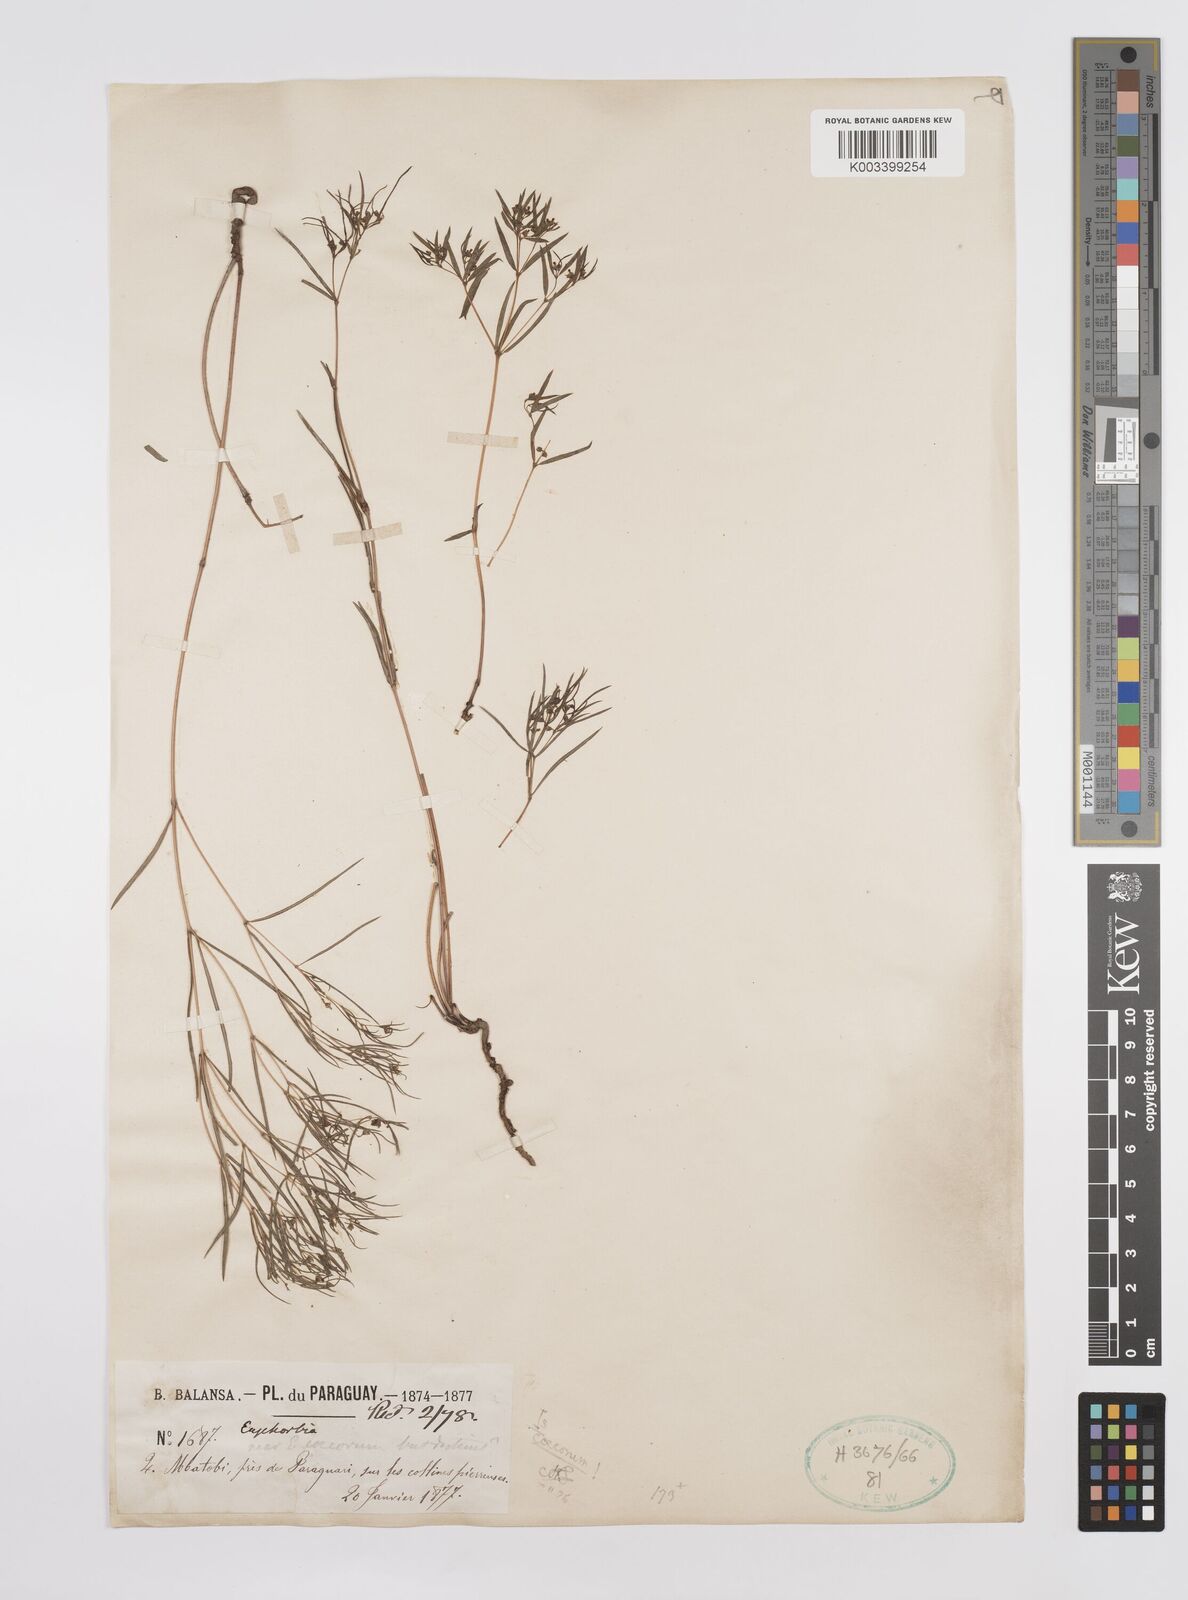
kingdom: Plantae
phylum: Tracheophyta
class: Magnoliopsida
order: Malpighiales
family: Euphorbiaceae
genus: Euphorbia
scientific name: Euphorbia potentilloides
